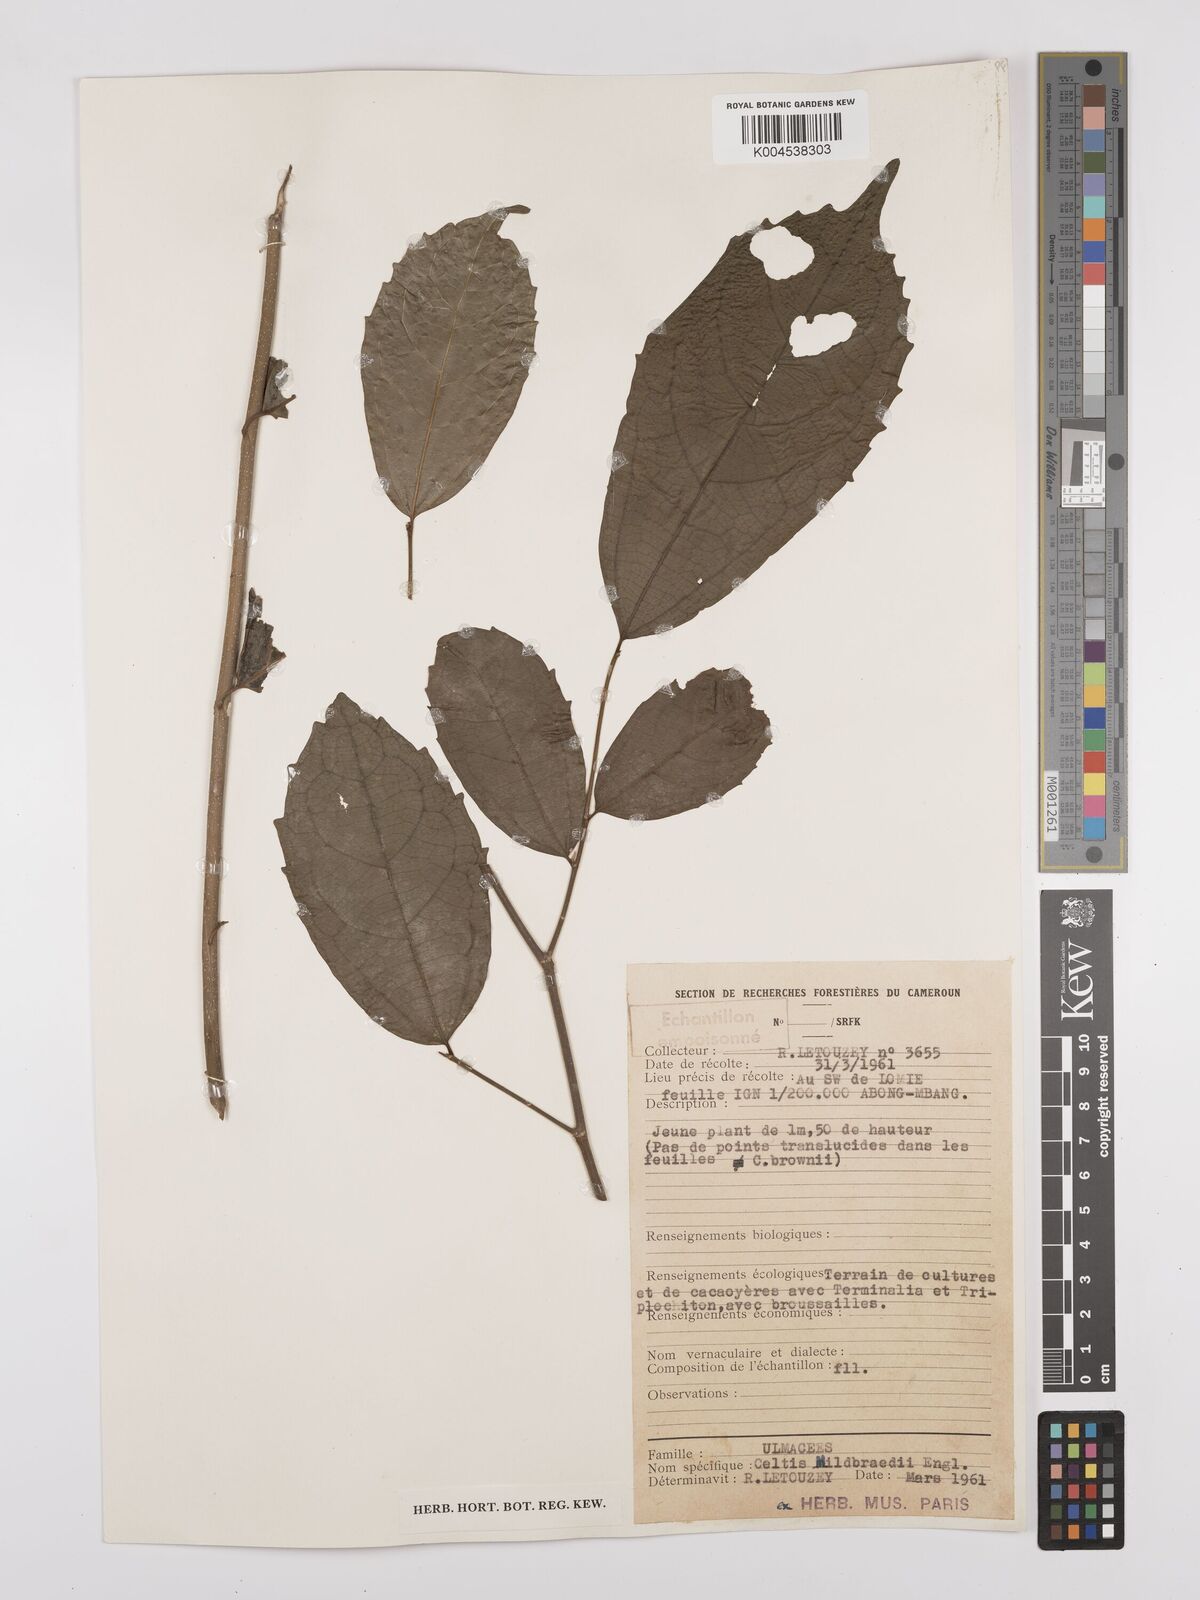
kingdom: Plantae
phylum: Tracheophyta
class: Magnoliopsida
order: Rosales
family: Cannabaceae
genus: Celtis
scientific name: Celtis mildbraedii
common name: Red-fruited stinkwood
